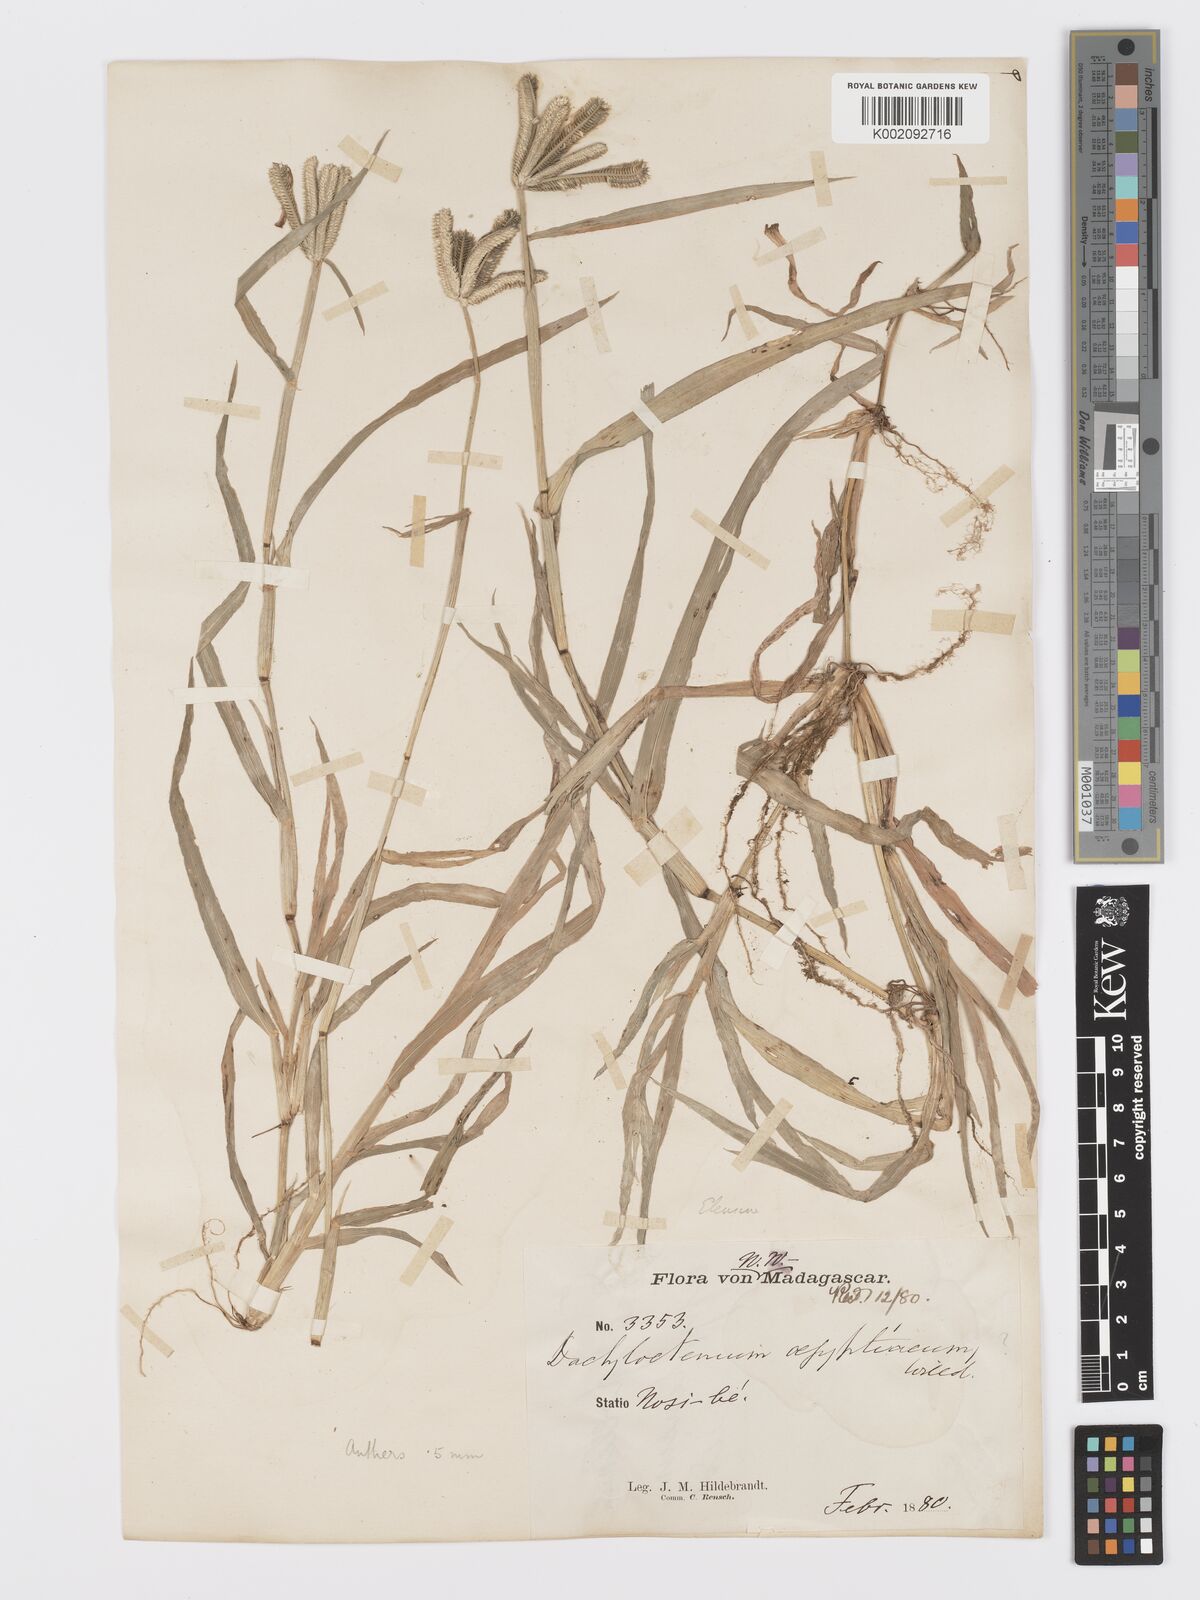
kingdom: Plantae
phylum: Tracheophyta
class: Liliopsida
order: Poales
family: Poaceae
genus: Dactyloctenium
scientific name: Dactyloctenium aegyptium
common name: Egyptian grass
